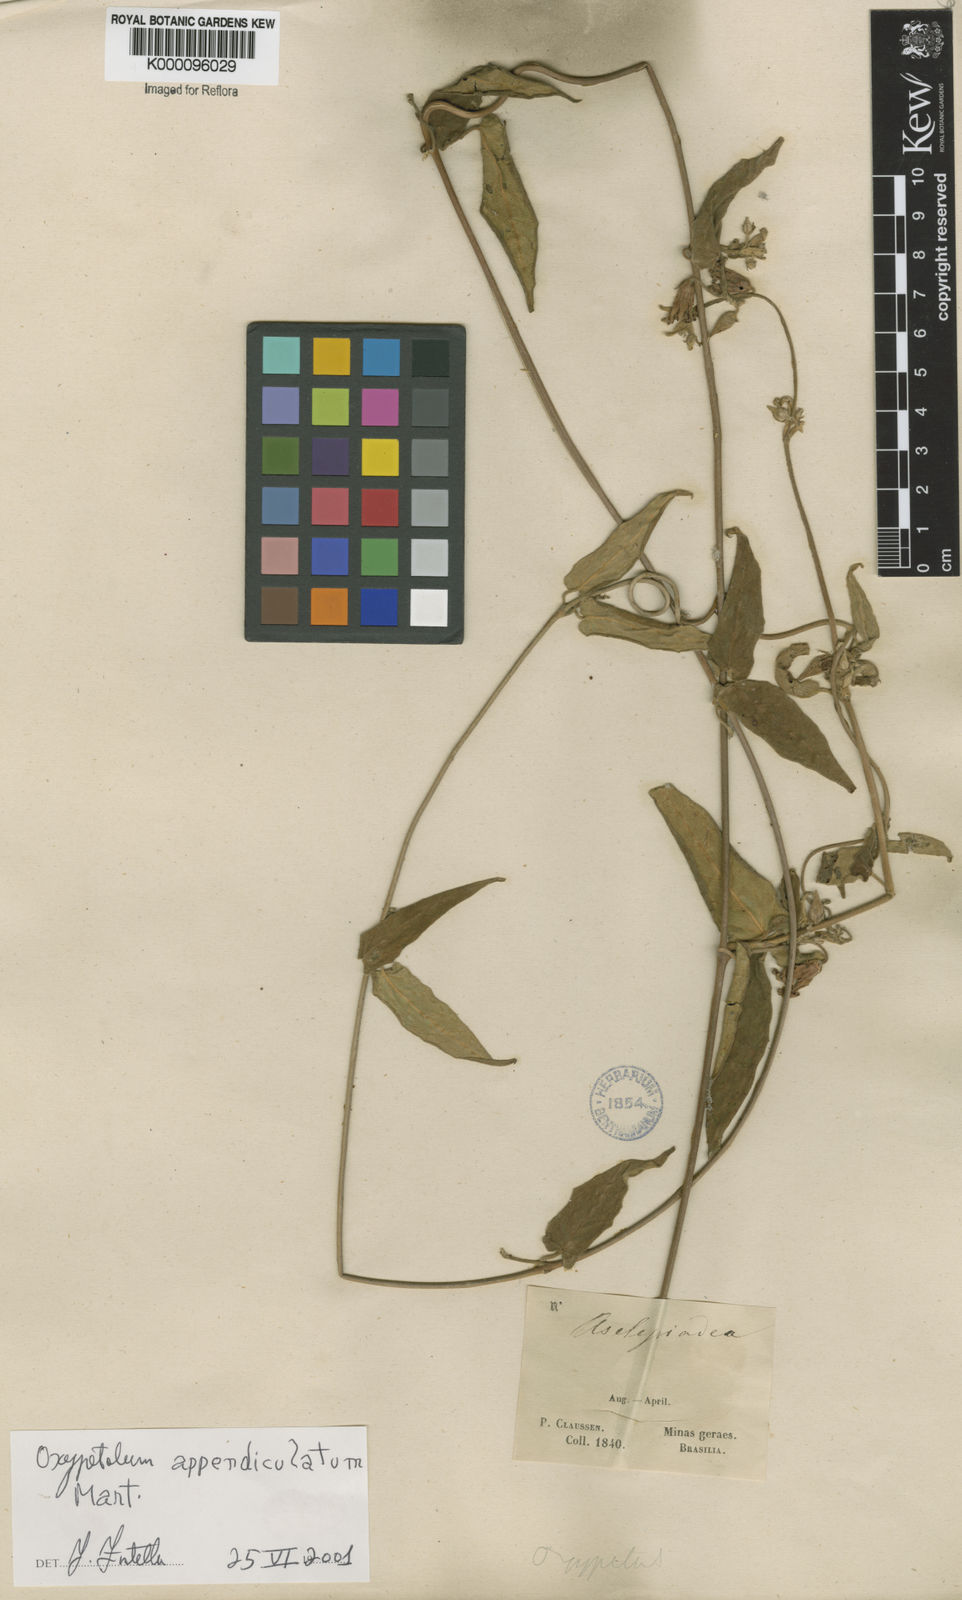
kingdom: Plantae
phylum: Tracheophyta
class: Magnoliopsida
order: Gentianales
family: Apocynaceae
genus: Oxypetalum
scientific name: Oxypetalum appendiculatum
